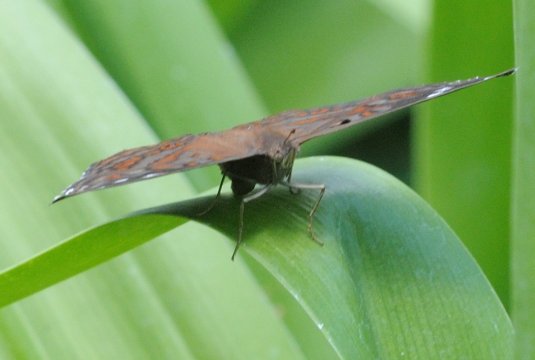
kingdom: Animalia
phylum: Arthropoda
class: Insecta
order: Lepidoptera
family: Nymphalidae
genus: Junonia
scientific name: Junonia natalica
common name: Natal Pansy
